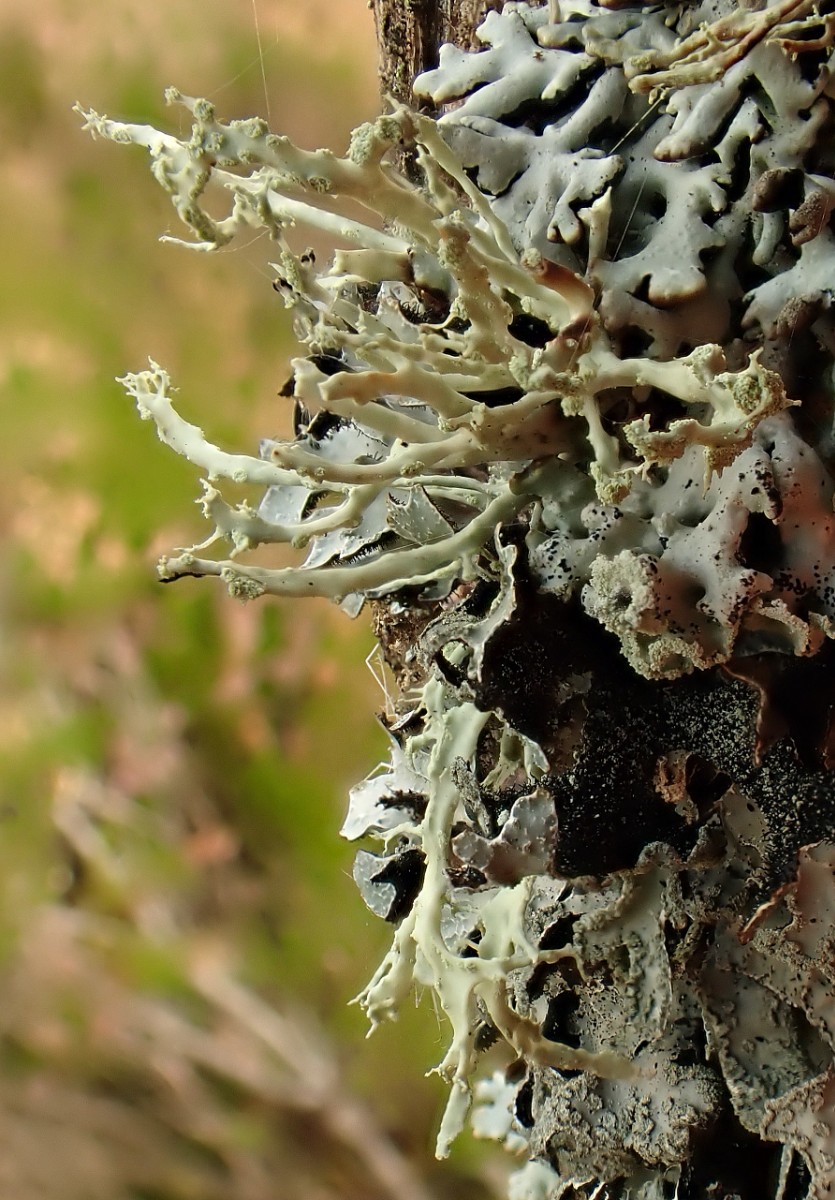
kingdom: Fungi
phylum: Ascomycota
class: Lecanoromycetes
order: Lecanorales
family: Ramalinaceae
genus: Ramalina
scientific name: Ramalina farinacea
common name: melet grenlav
